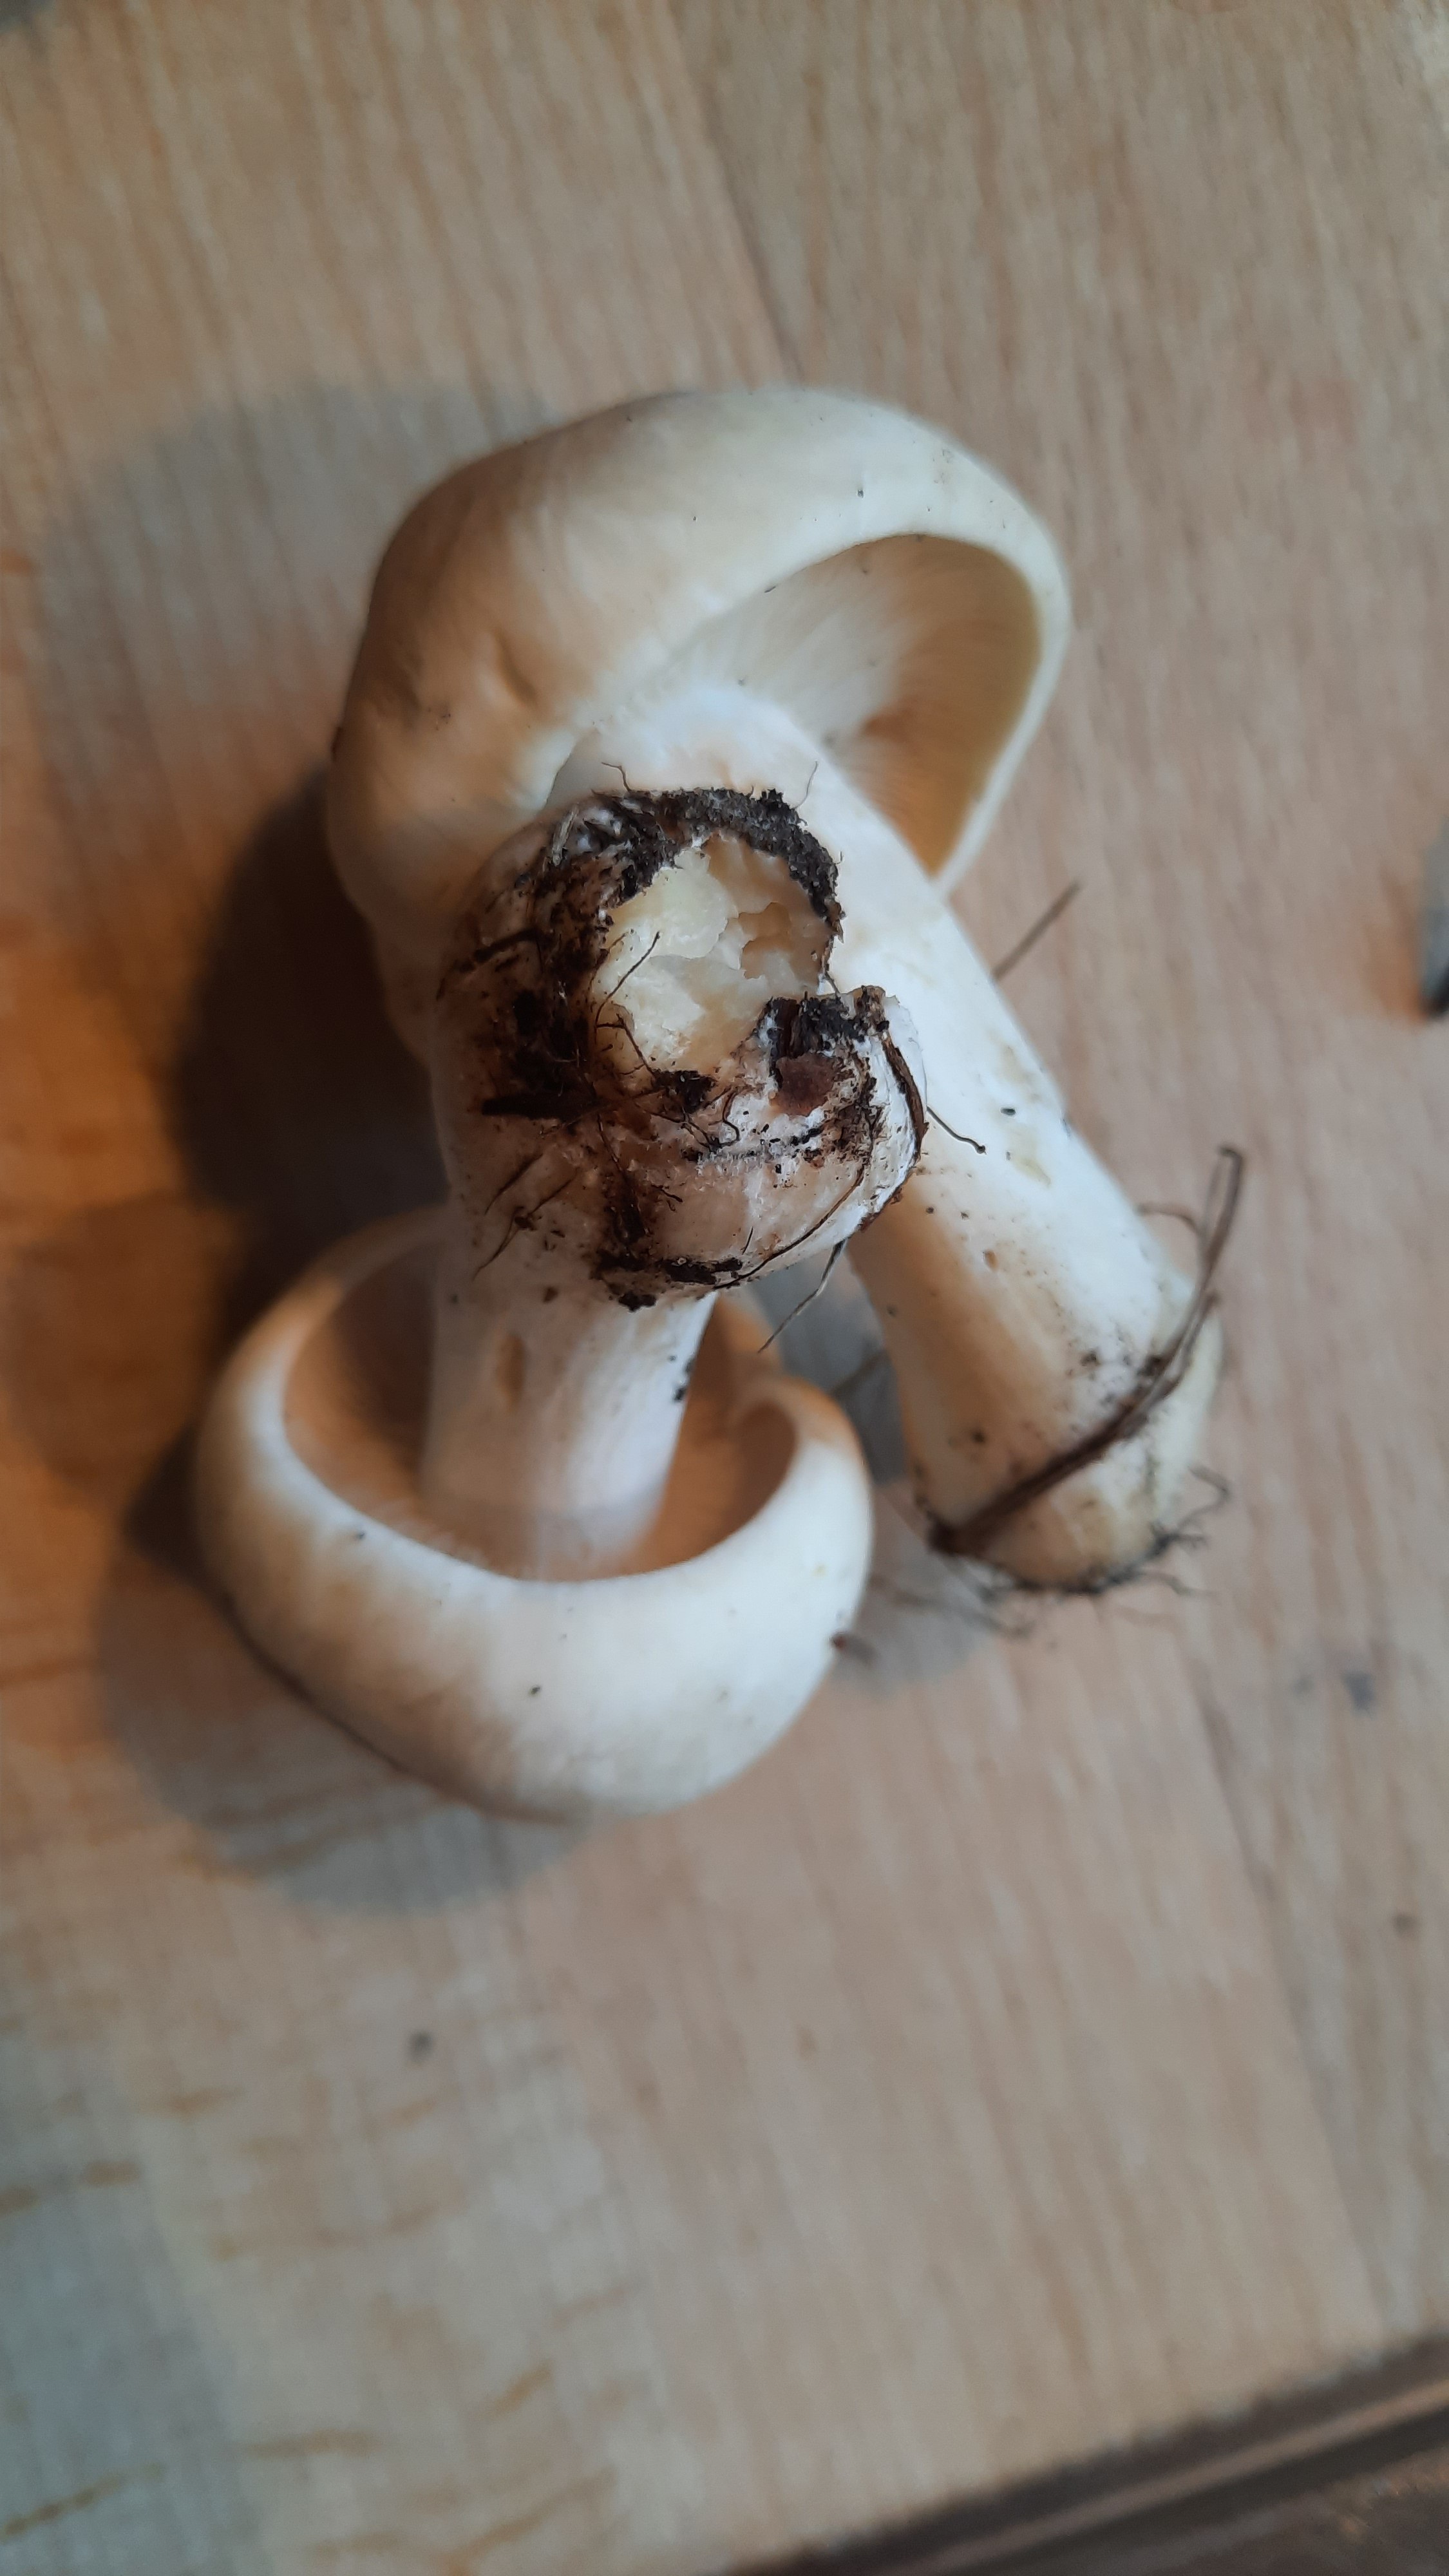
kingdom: Fungi
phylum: Basidiomycota
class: Agaricomycetes
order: Agaricales
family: Lyophyllaceae
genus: Calocybe
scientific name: Calocybe gambosa
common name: vårmusseron
